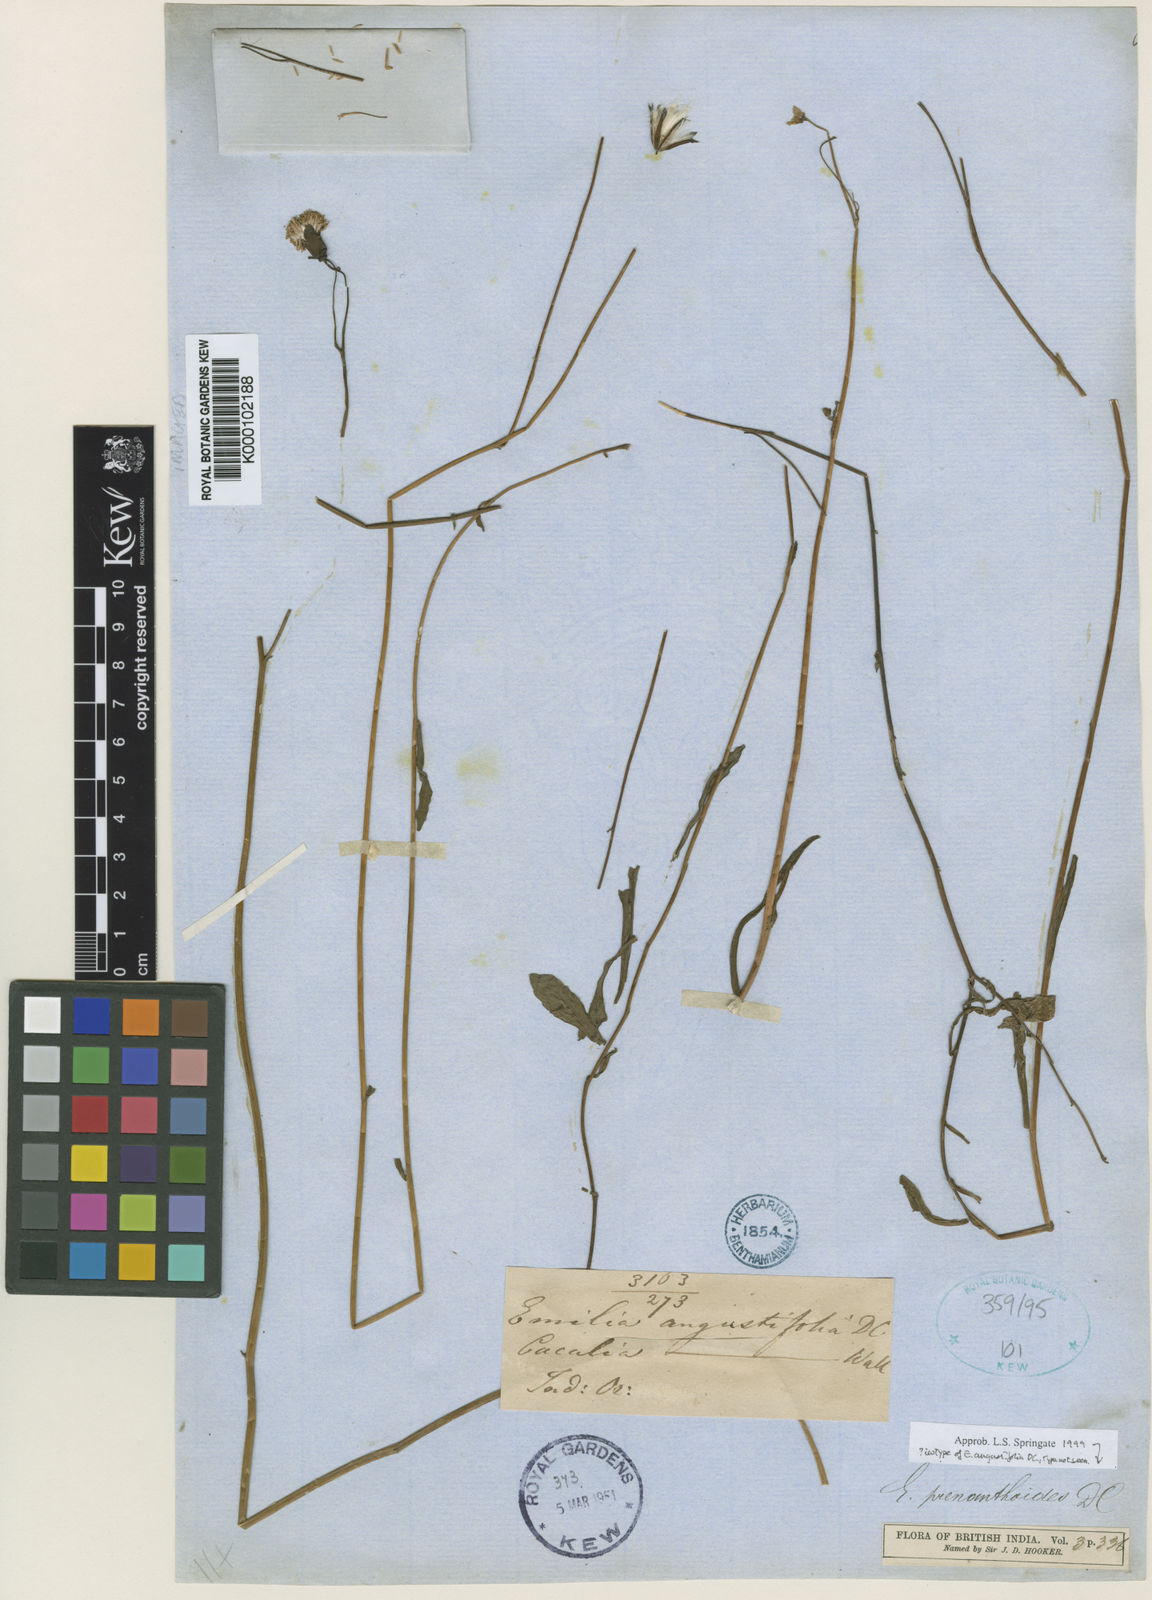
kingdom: Plantae
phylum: Tracheophyta
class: Magnoliopsida
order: Asterales
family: Asteraceae
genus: Emilia
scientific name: Emilia prenanthoidea
